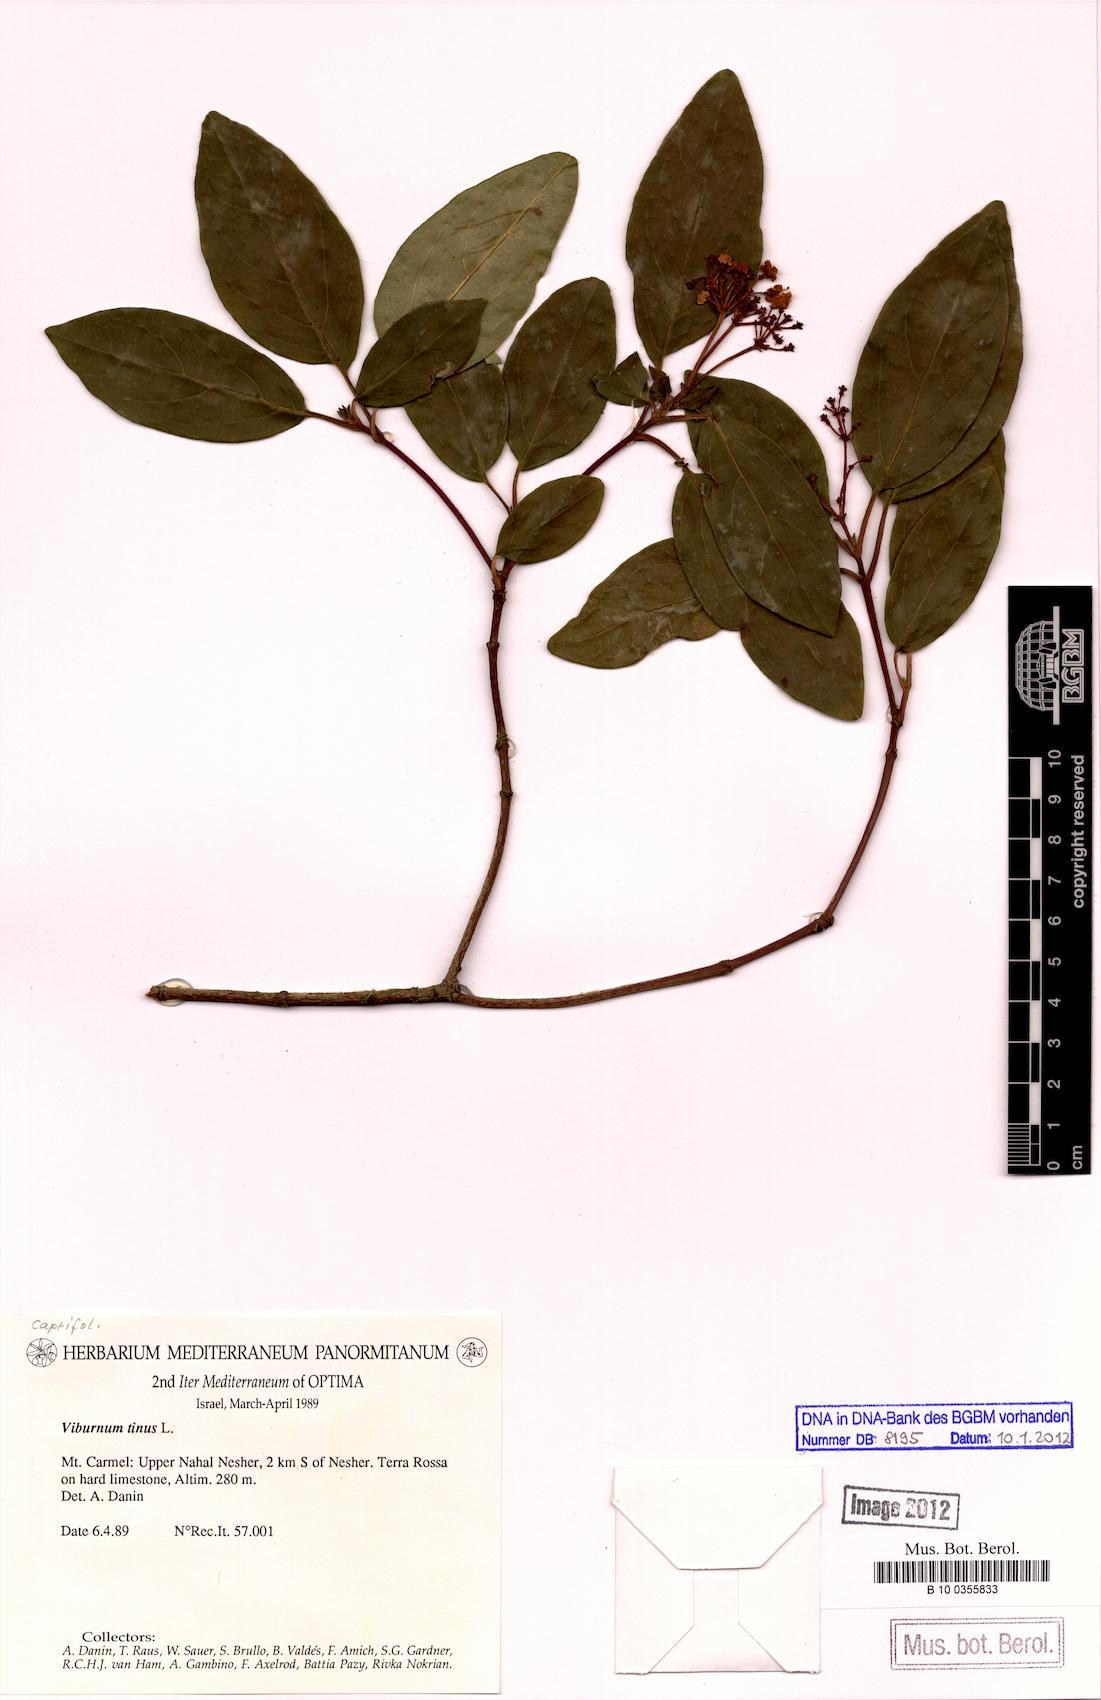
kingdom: Plantae
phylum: Tracheophyta
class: Magnoliopsida
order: Dipsacales
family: Viburnaceae
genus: Viburnum
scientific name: Viburnum tinus
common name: Laurustinus
